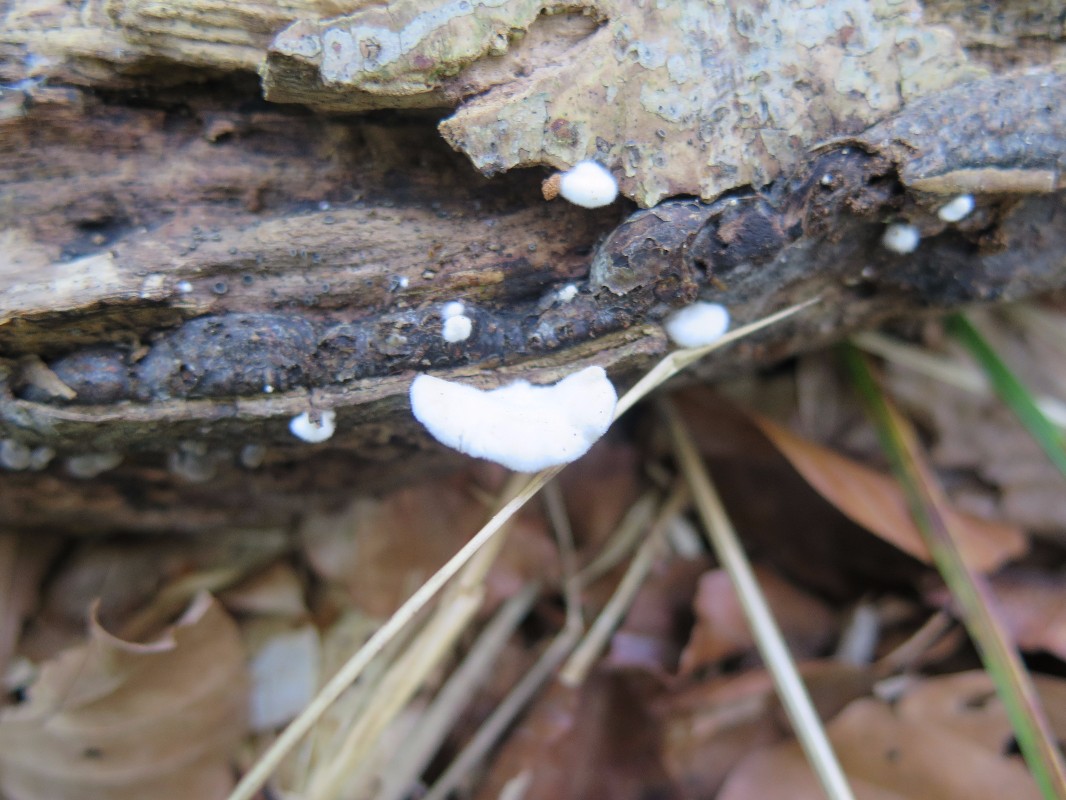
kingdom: Fungi
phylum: Basidiomycota
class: Agaricomycetes
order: Agaricales
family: Crepidotaceae
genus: Crepidotus
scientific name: Crepidotus cesatii
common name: almindelig muslingesvamp
